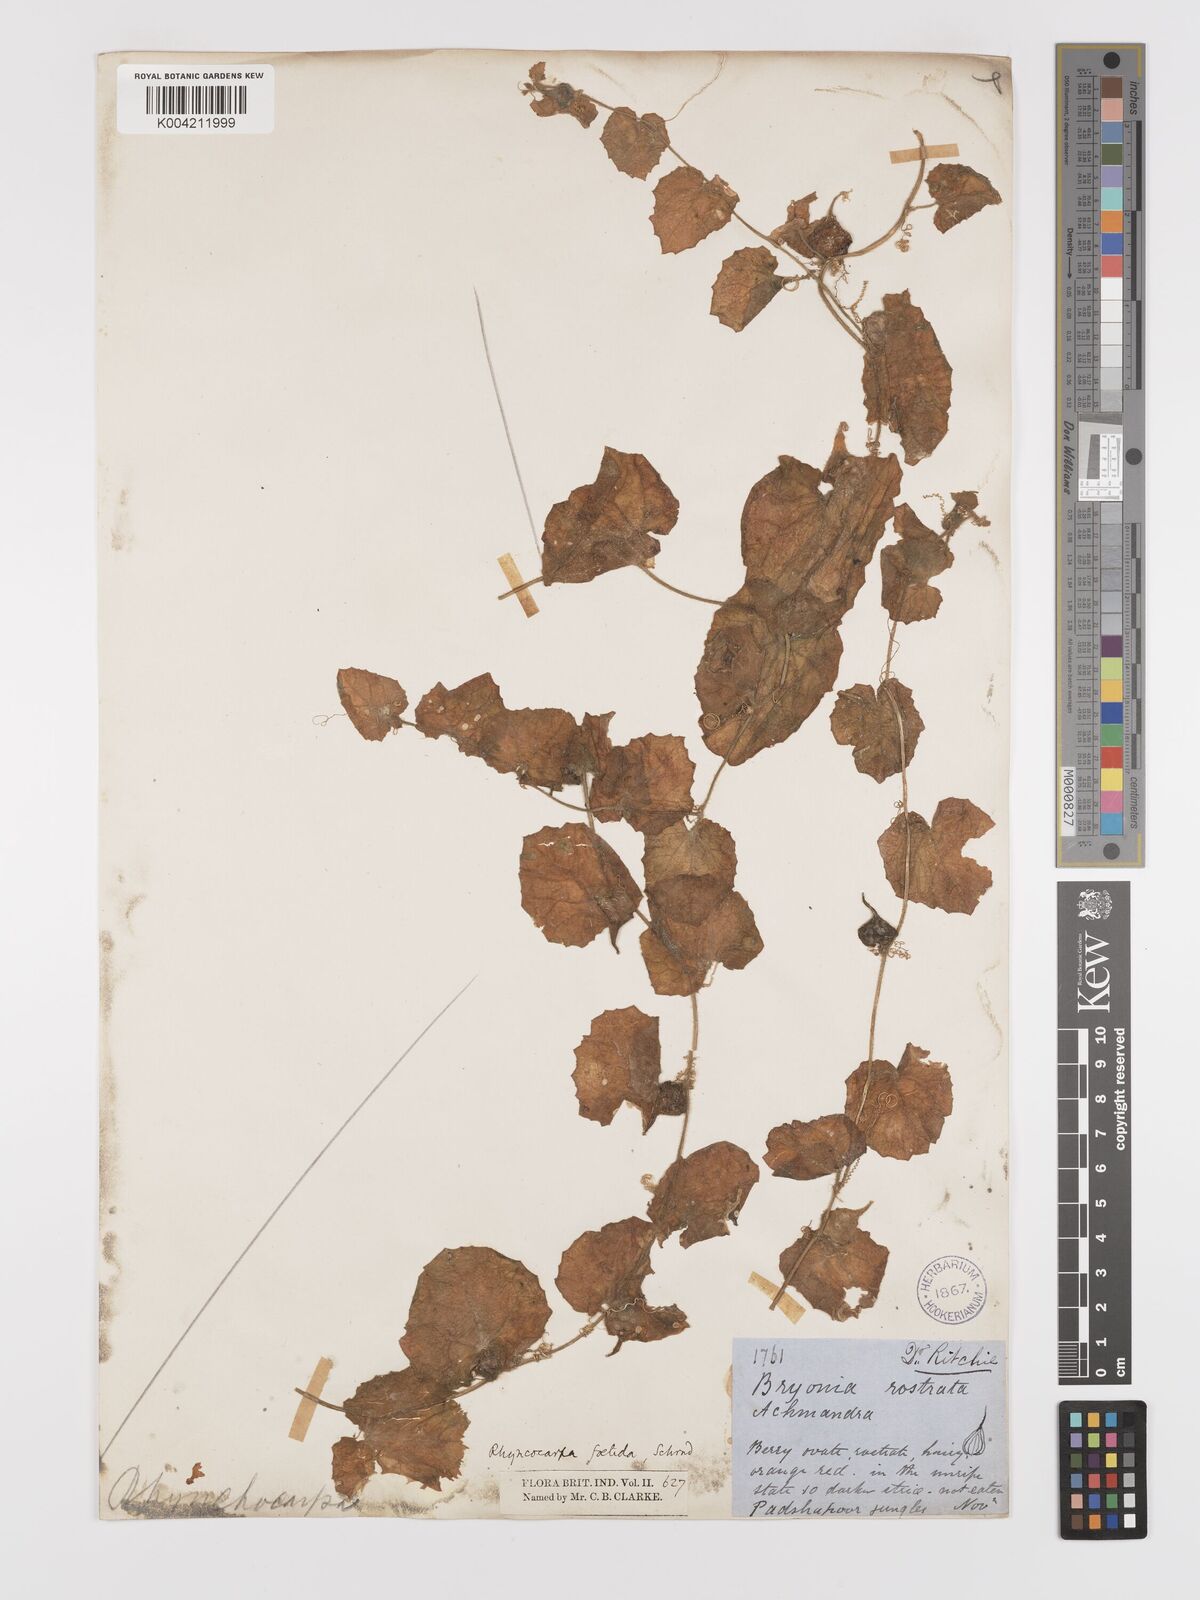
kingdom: Plantae
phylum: Tracheophyta
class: Magnoliopsida
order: Cucurbitales
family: Cucurbitaceae
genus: Kedrostis
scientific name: Kedrostis foetidissima
